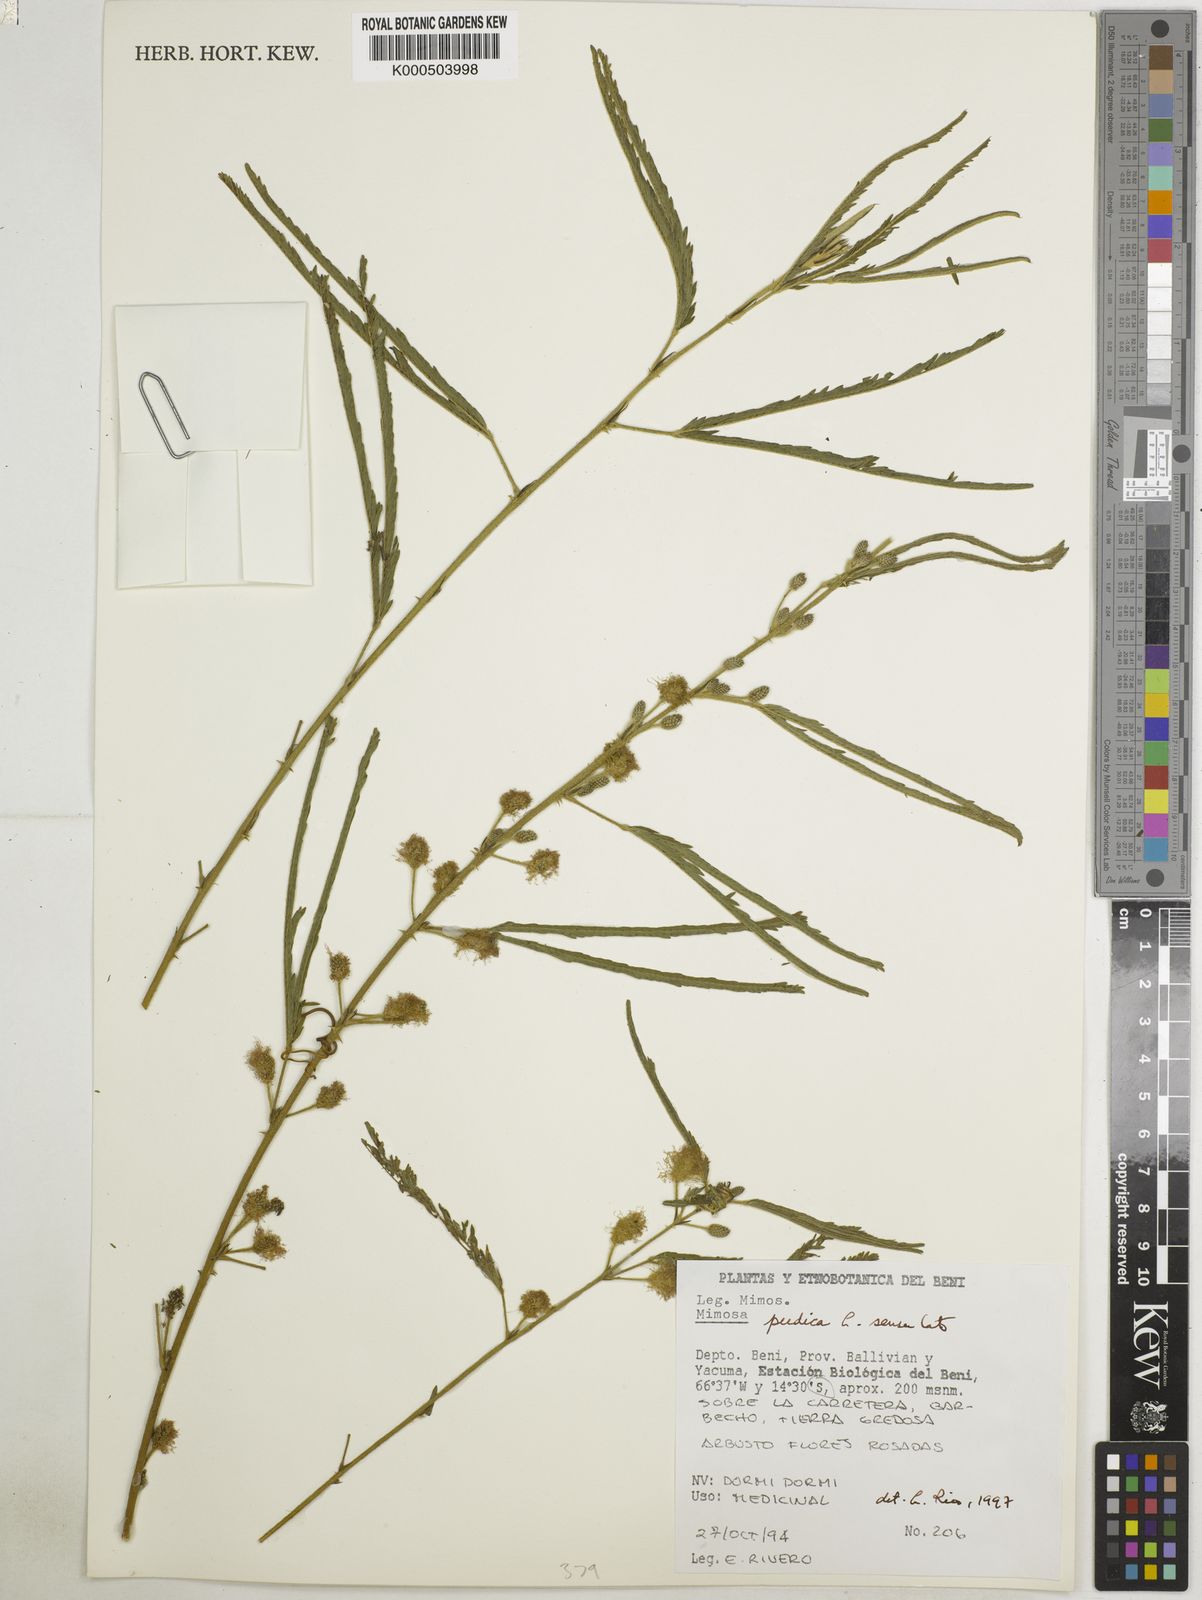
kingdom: Plantae
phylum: Tracheophyta
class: Magnoliopsida
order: Fabales
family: Fabaceae
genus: Mimosa
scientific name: Mimosa pudica
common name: Sensitive plant
